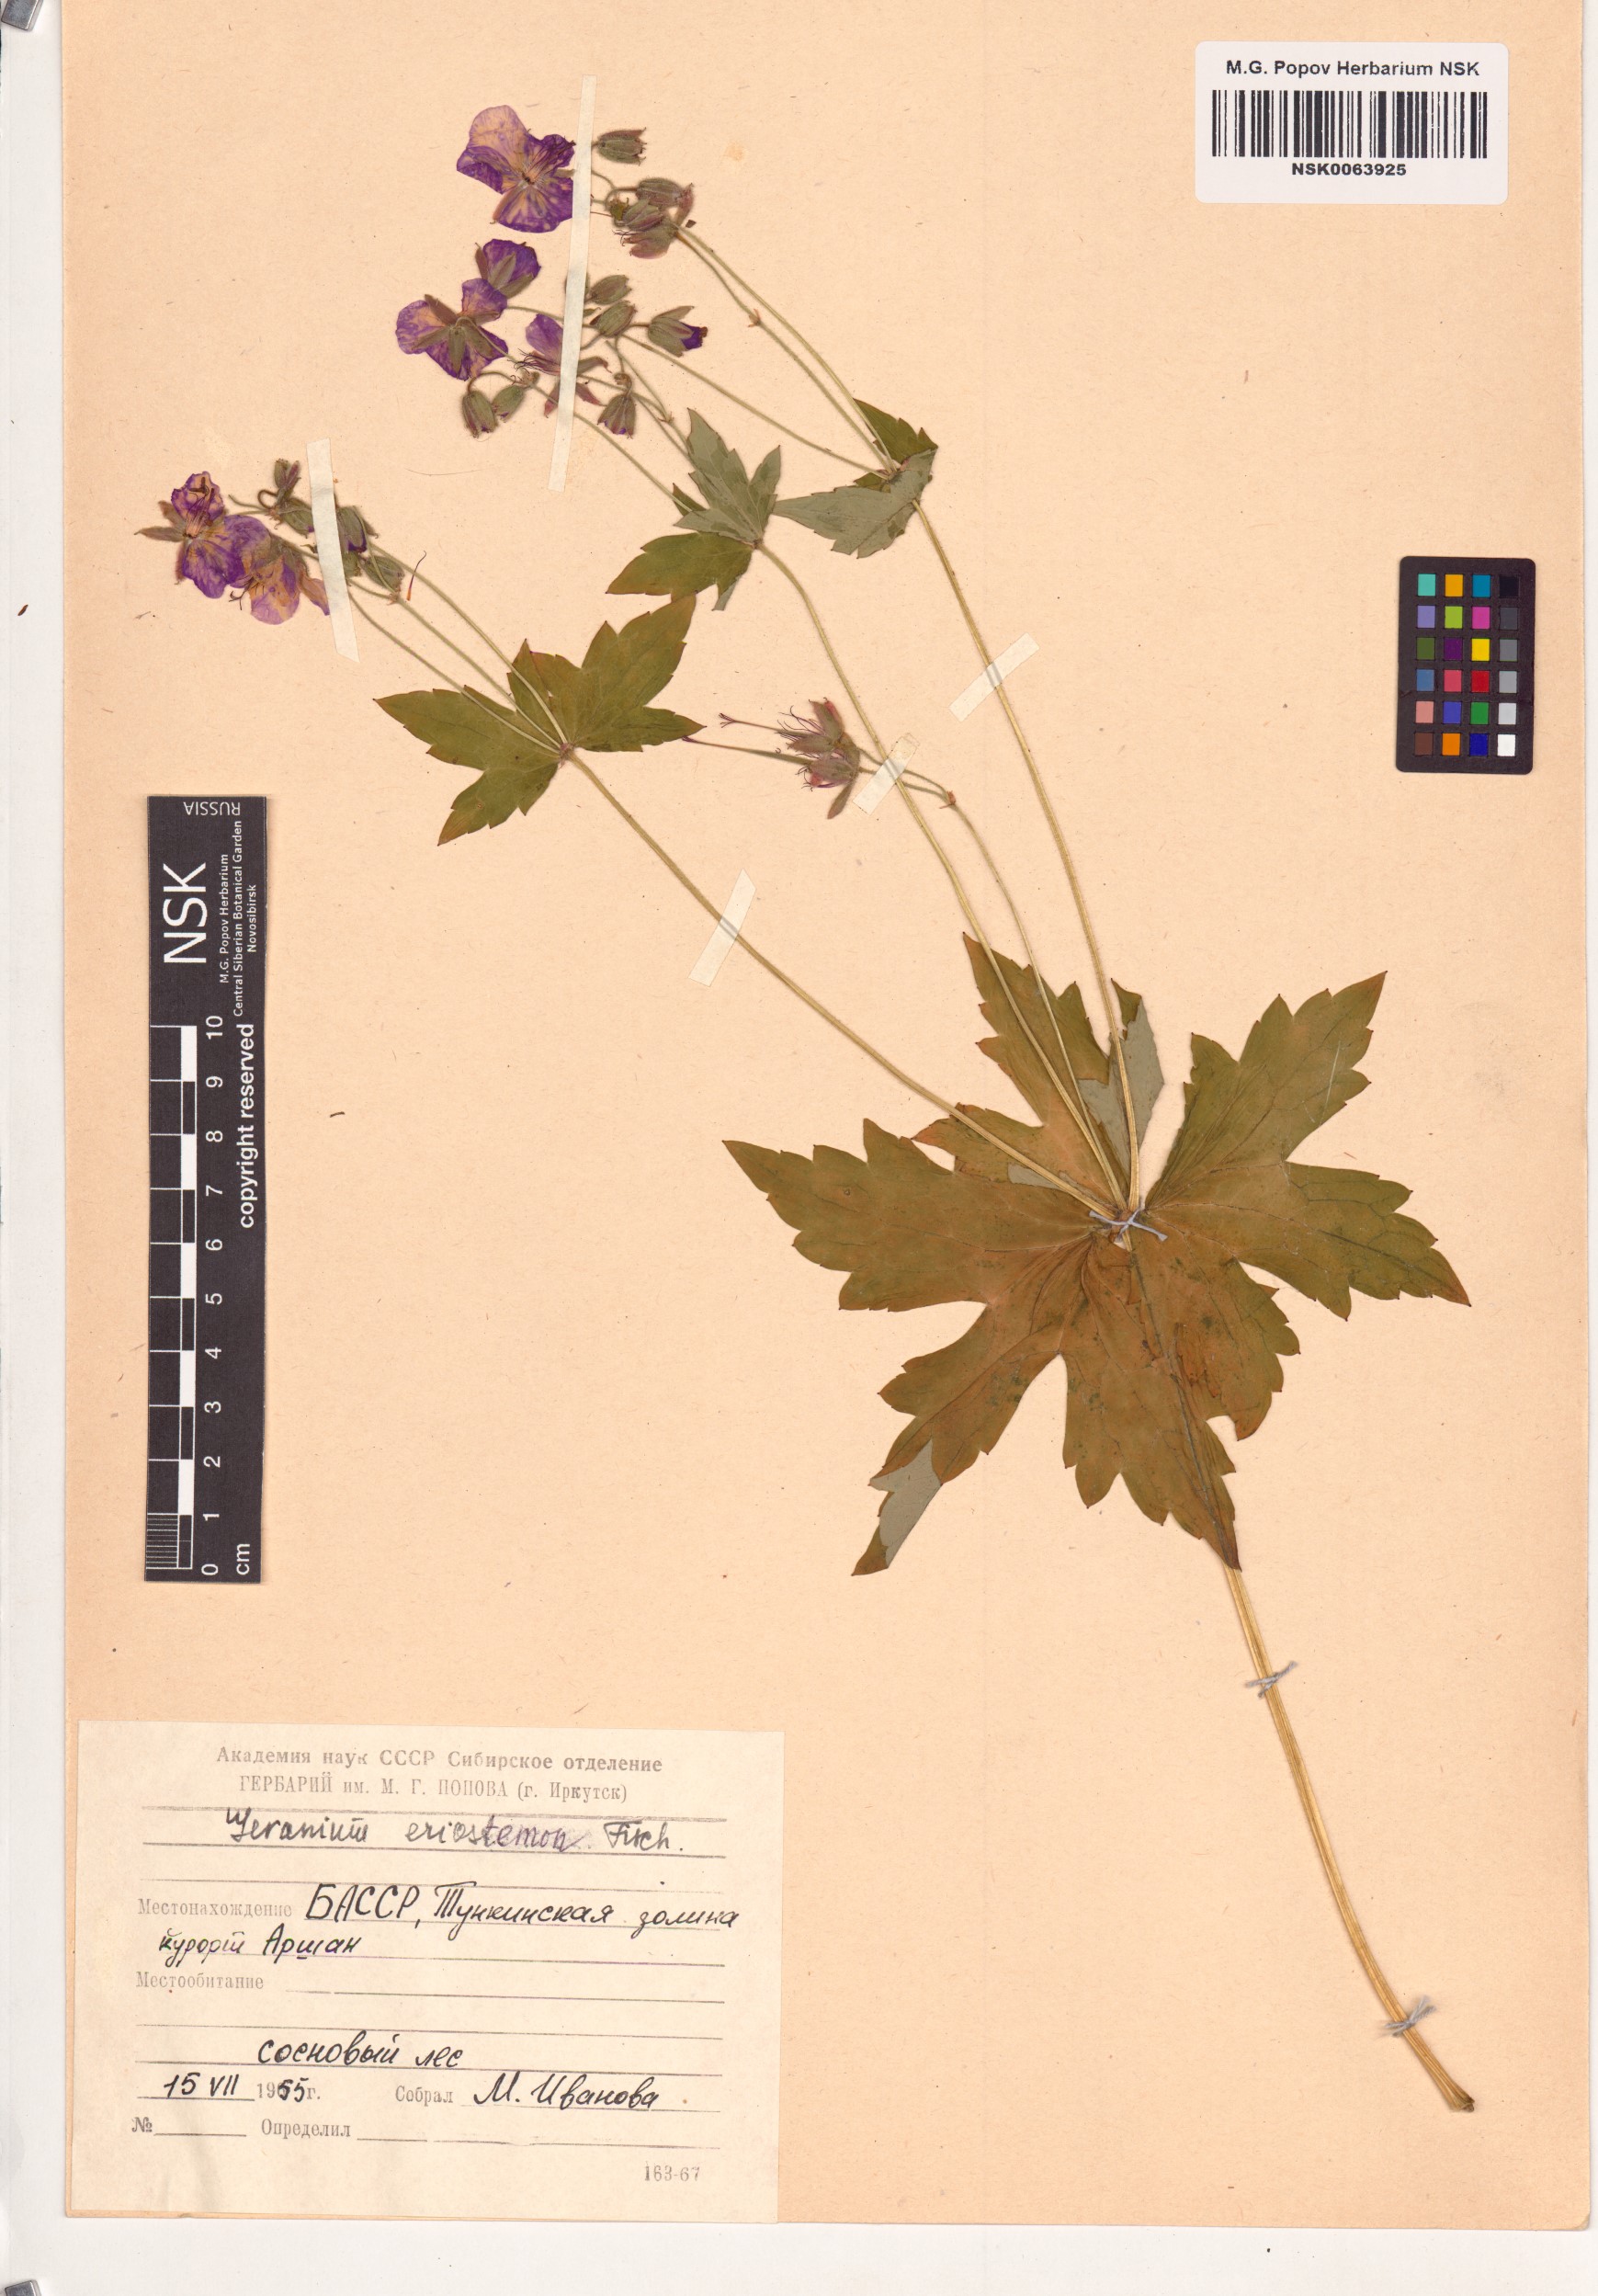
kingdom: Plantae
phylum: Tracheophyta
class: Magnoliopsida
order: Geraniales
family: Geraniaceae
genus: Geranium
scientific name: Geranium platyanthum
